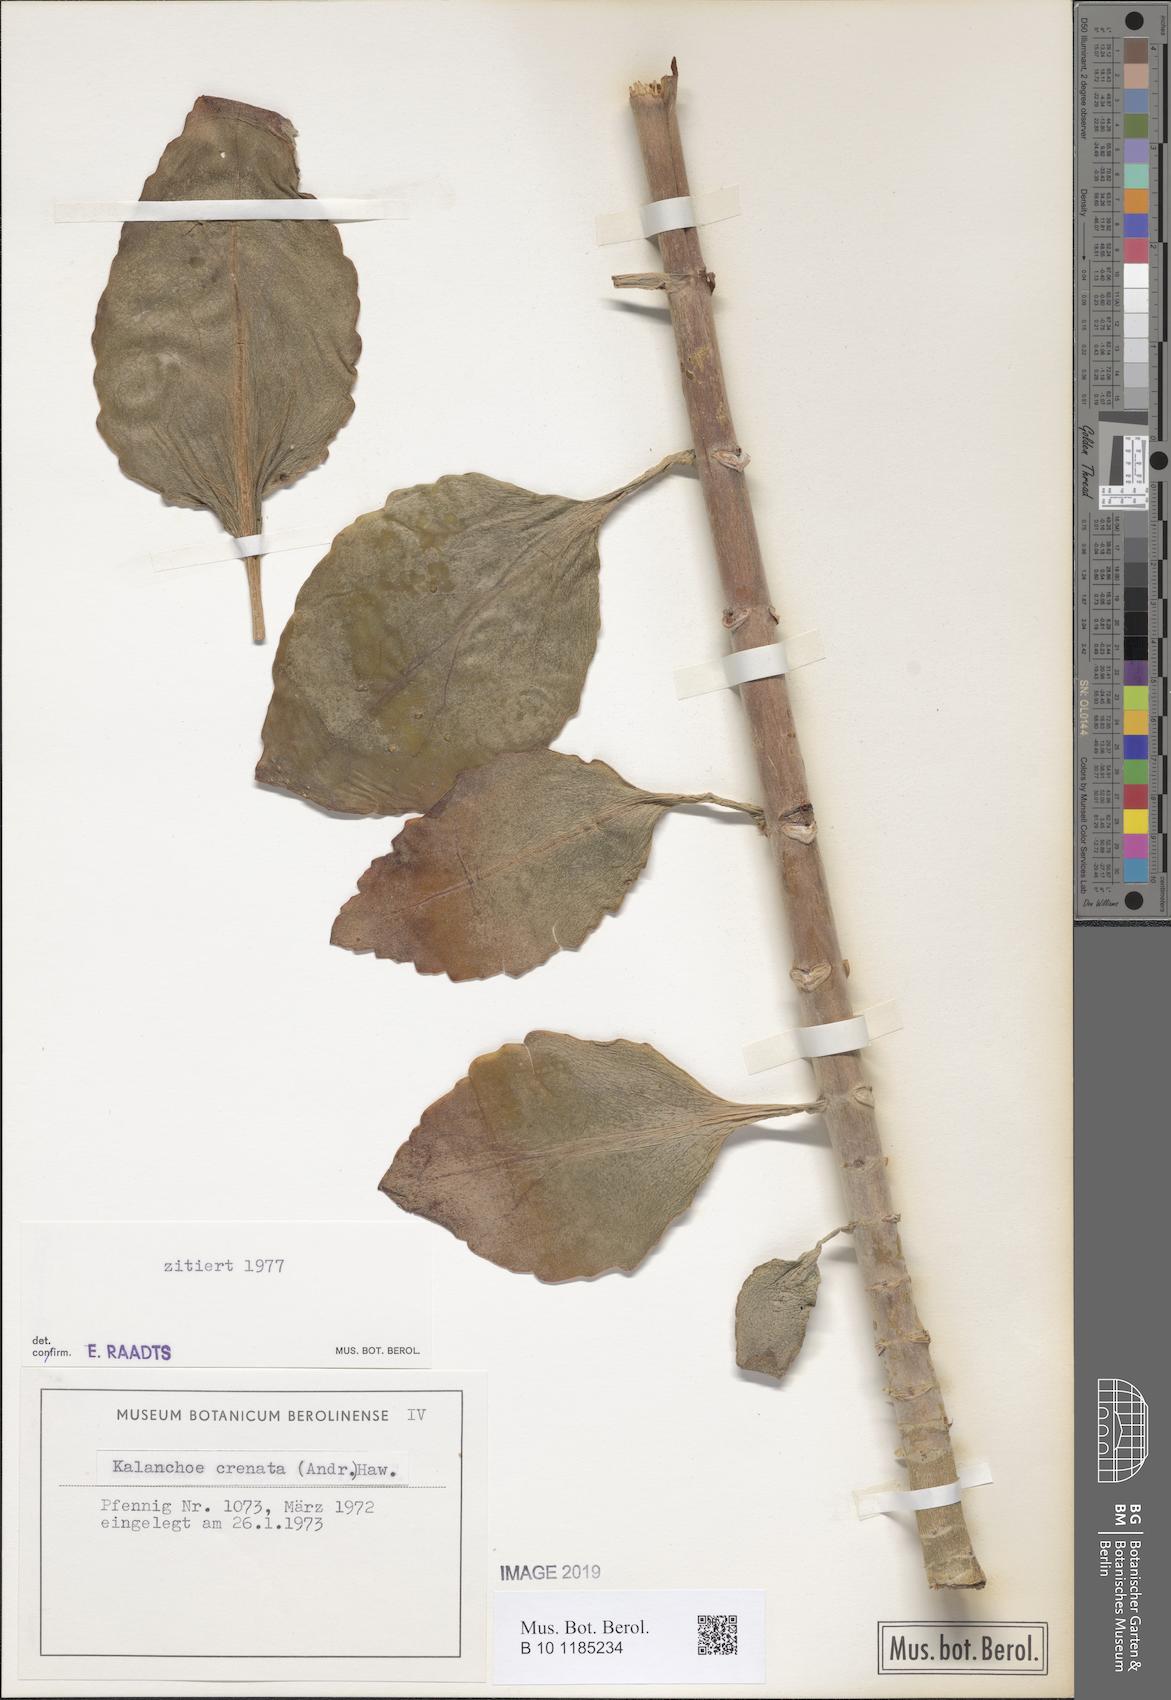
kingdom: Plantae
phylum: Tracheophyta
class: Magnoliopsida
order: Saxifragales
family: Crassulaceae
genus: Kalanchoe
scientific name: Kalanchoe crenata
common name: Neverdie
